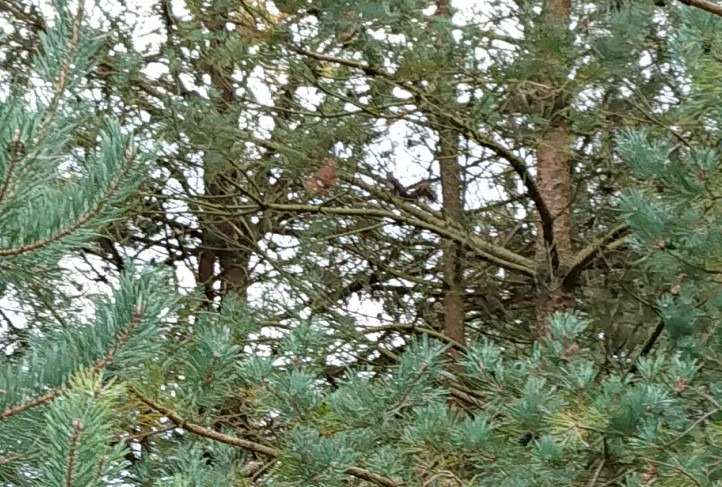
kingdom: Animalia
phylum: Chordata
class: Mammalia
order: Rodentia
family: Sciuridae
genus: Sciurus
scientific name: Sciurus vulgaris
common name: Egern
